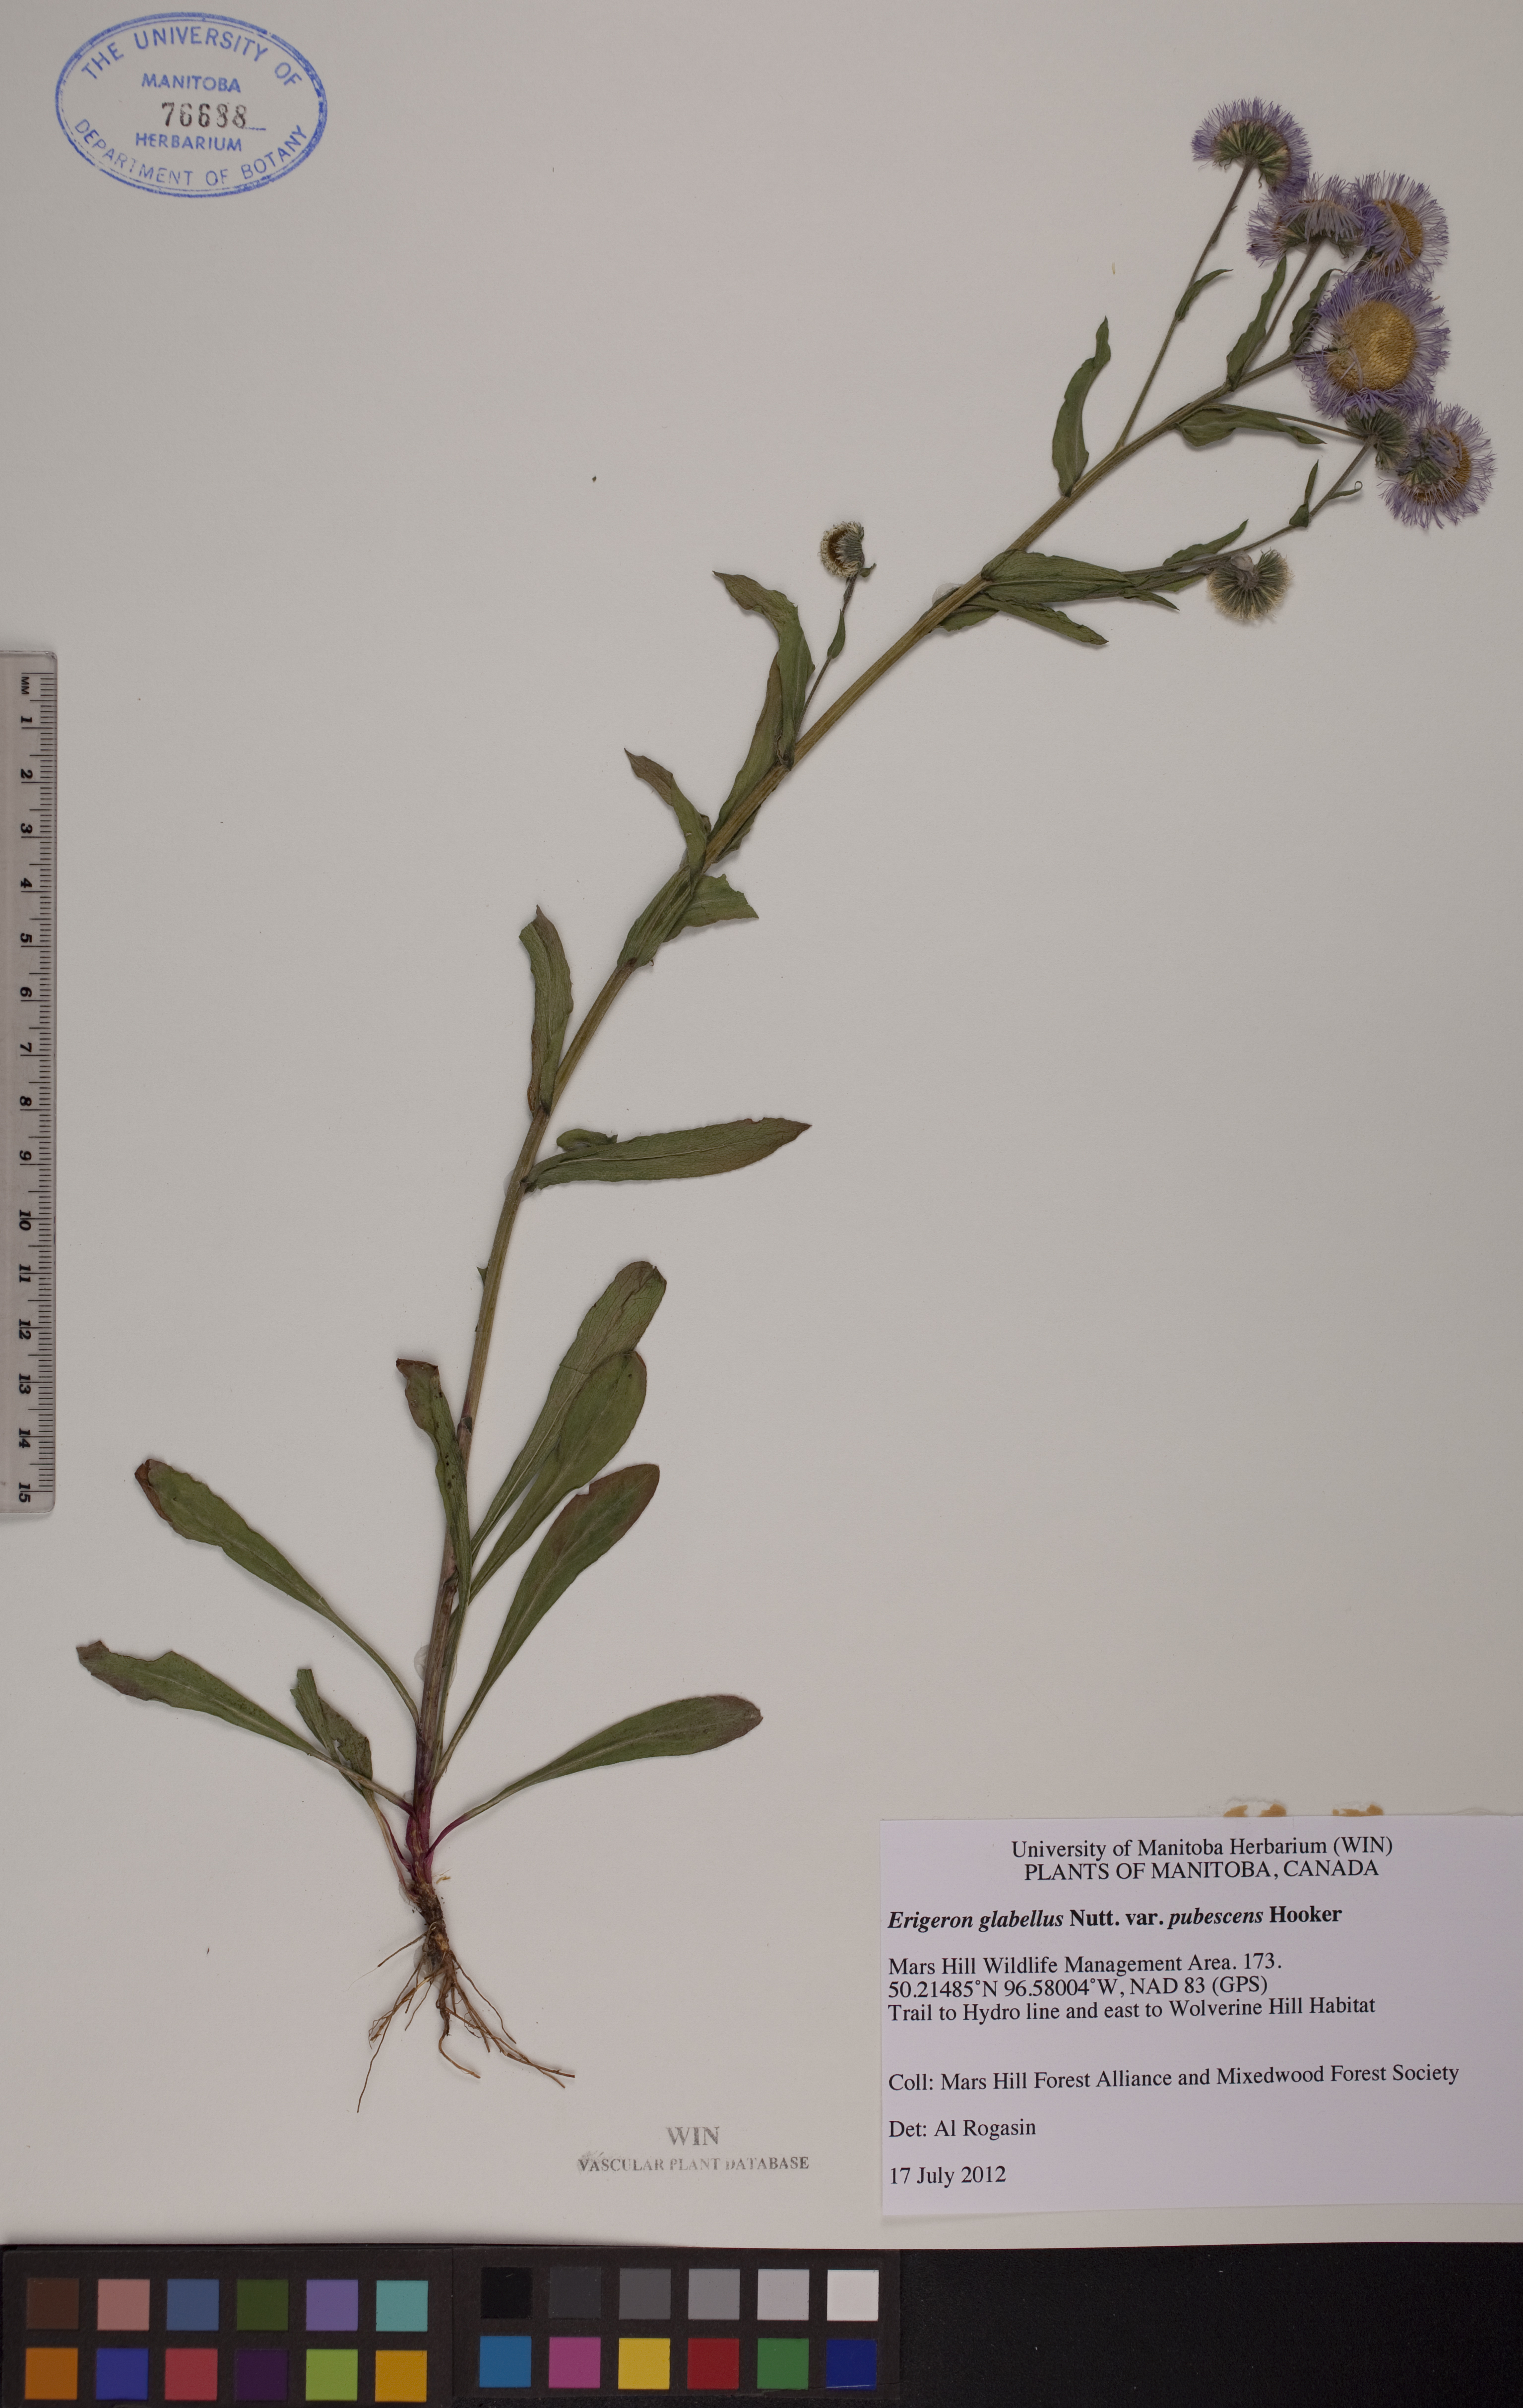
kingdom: Plantae
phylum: Tracheophyta
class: Magnoliopsida
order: Asterales
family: Asteraceae
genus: Erigeron
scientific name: Erigeron glabellus
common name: Smooth fleabane
